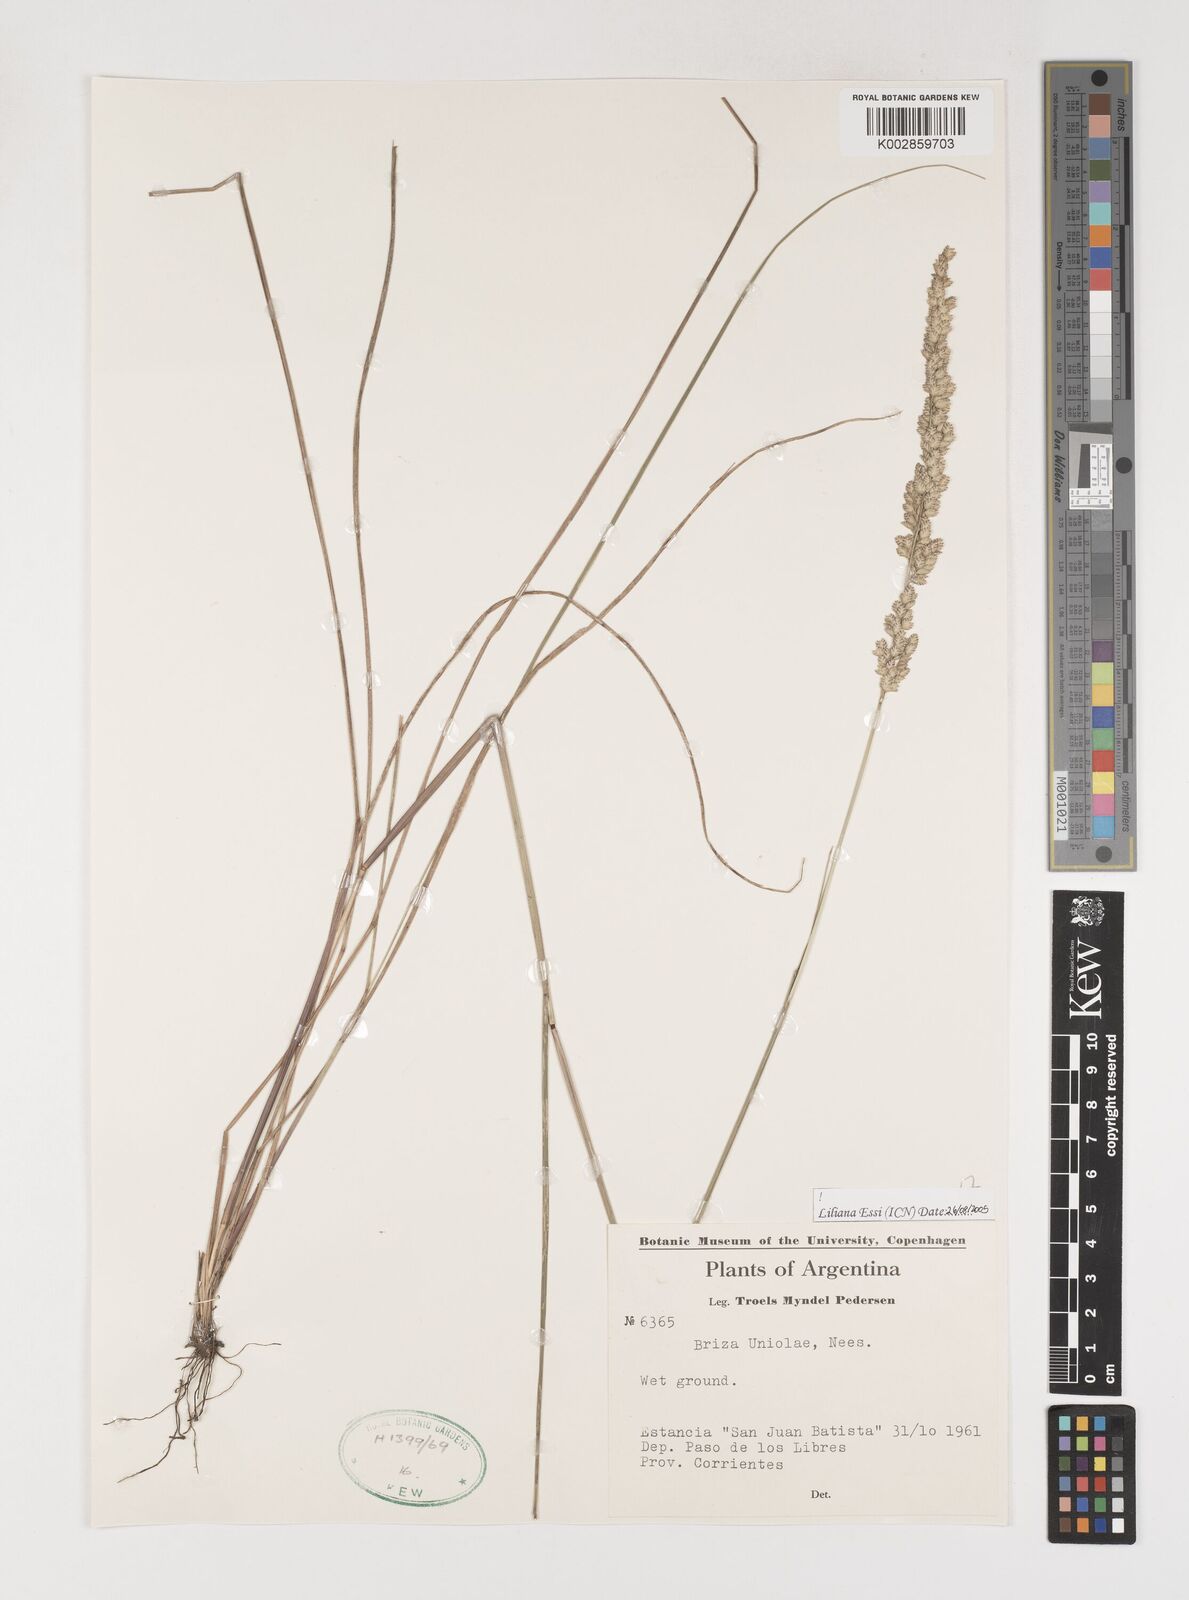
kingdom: Plantae
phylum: Tracheophyta
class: Liliopsida
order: Poales
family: Poaceae
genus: Poidium
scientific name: Poidium uniolae
